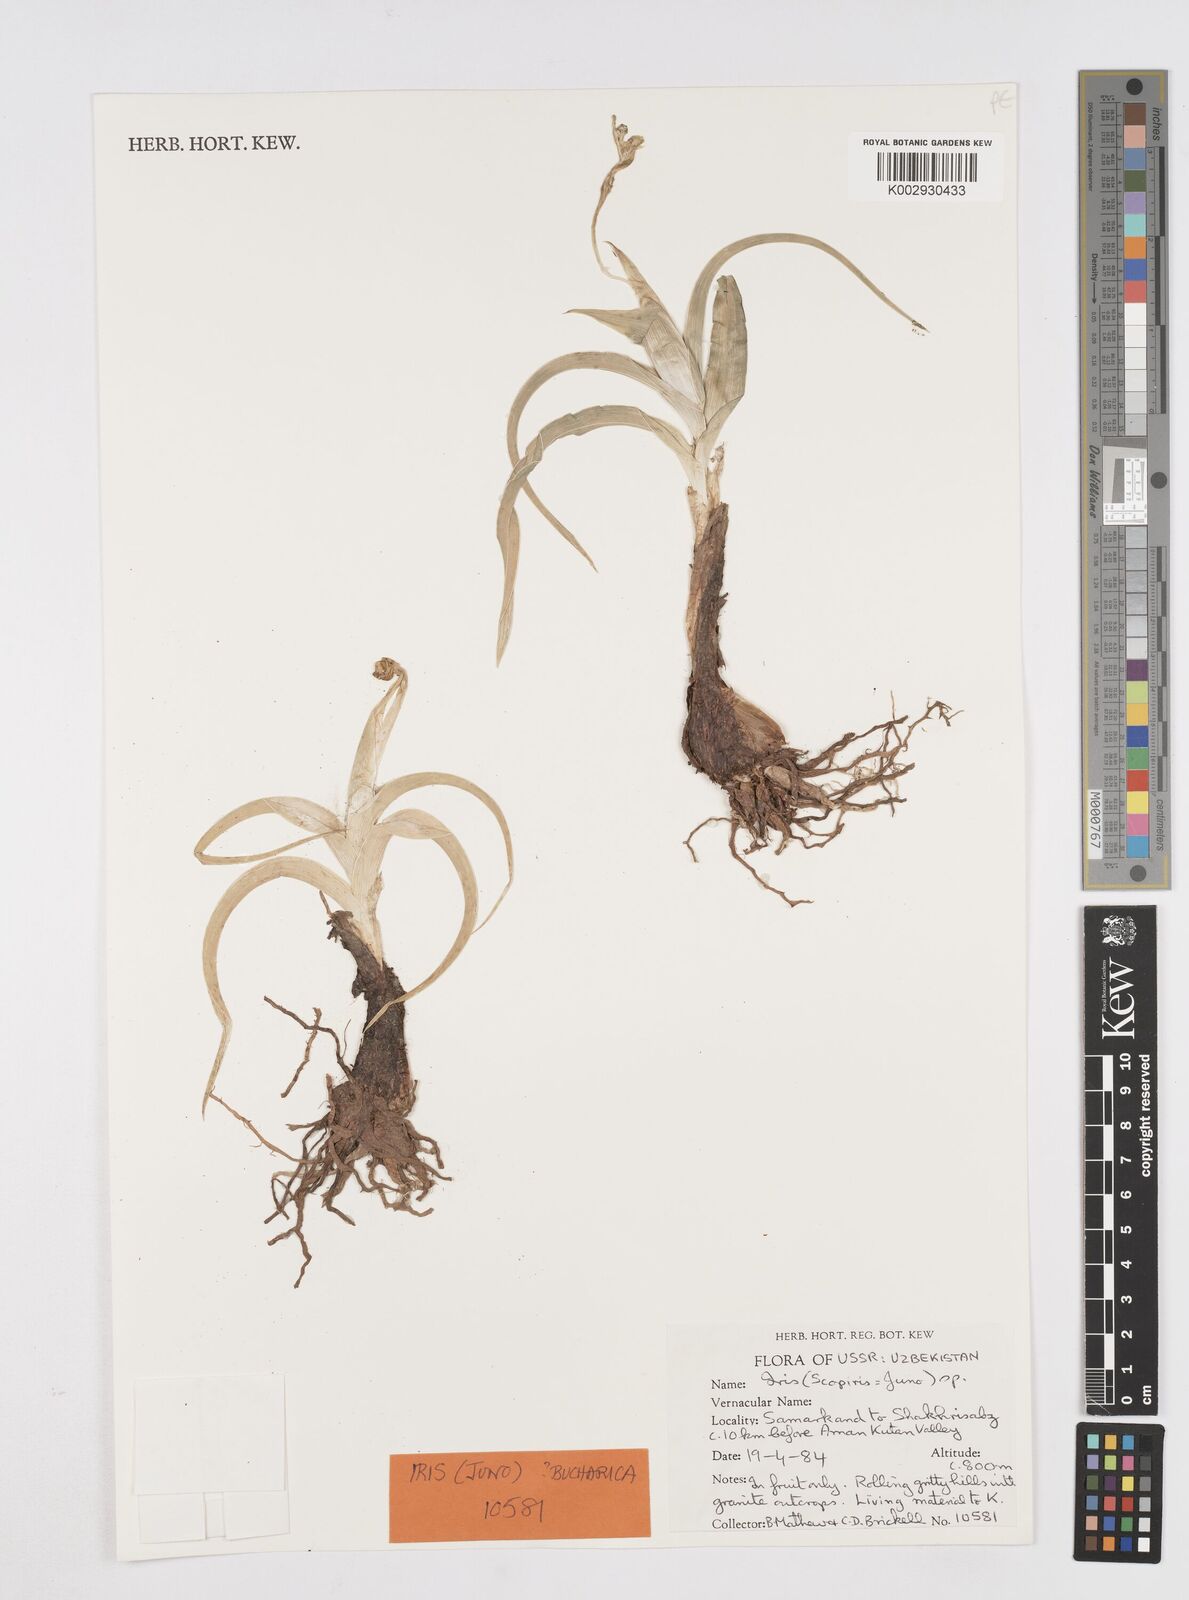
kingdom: Plantae
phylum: Tracheophyta
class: Liliopsida
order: Asparagales
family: Iridaceae
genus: Iris
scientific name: Iris
